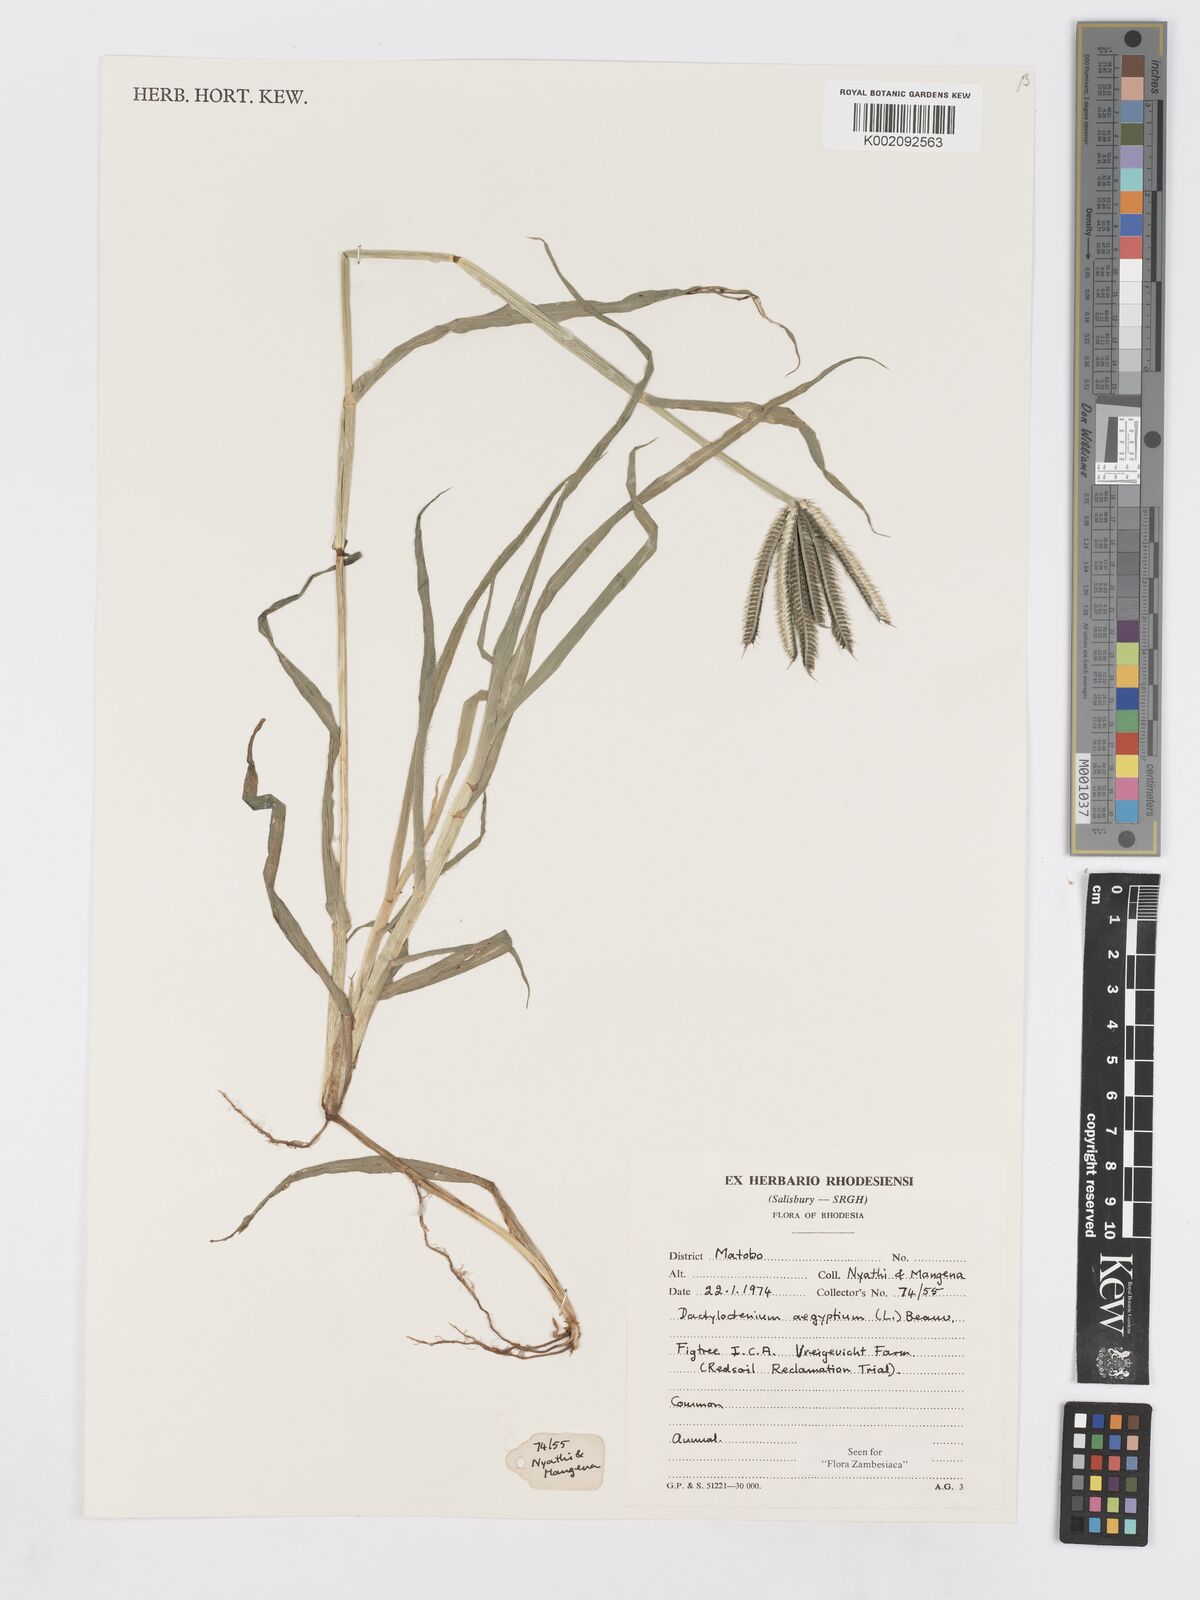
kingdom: Plantae
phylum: Tracheophyta
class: Liliopsida
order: Poales
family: Poaceae
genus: Dactyloctenium
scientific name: Dactyloctenium aegyptium
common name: Egyptian grass
